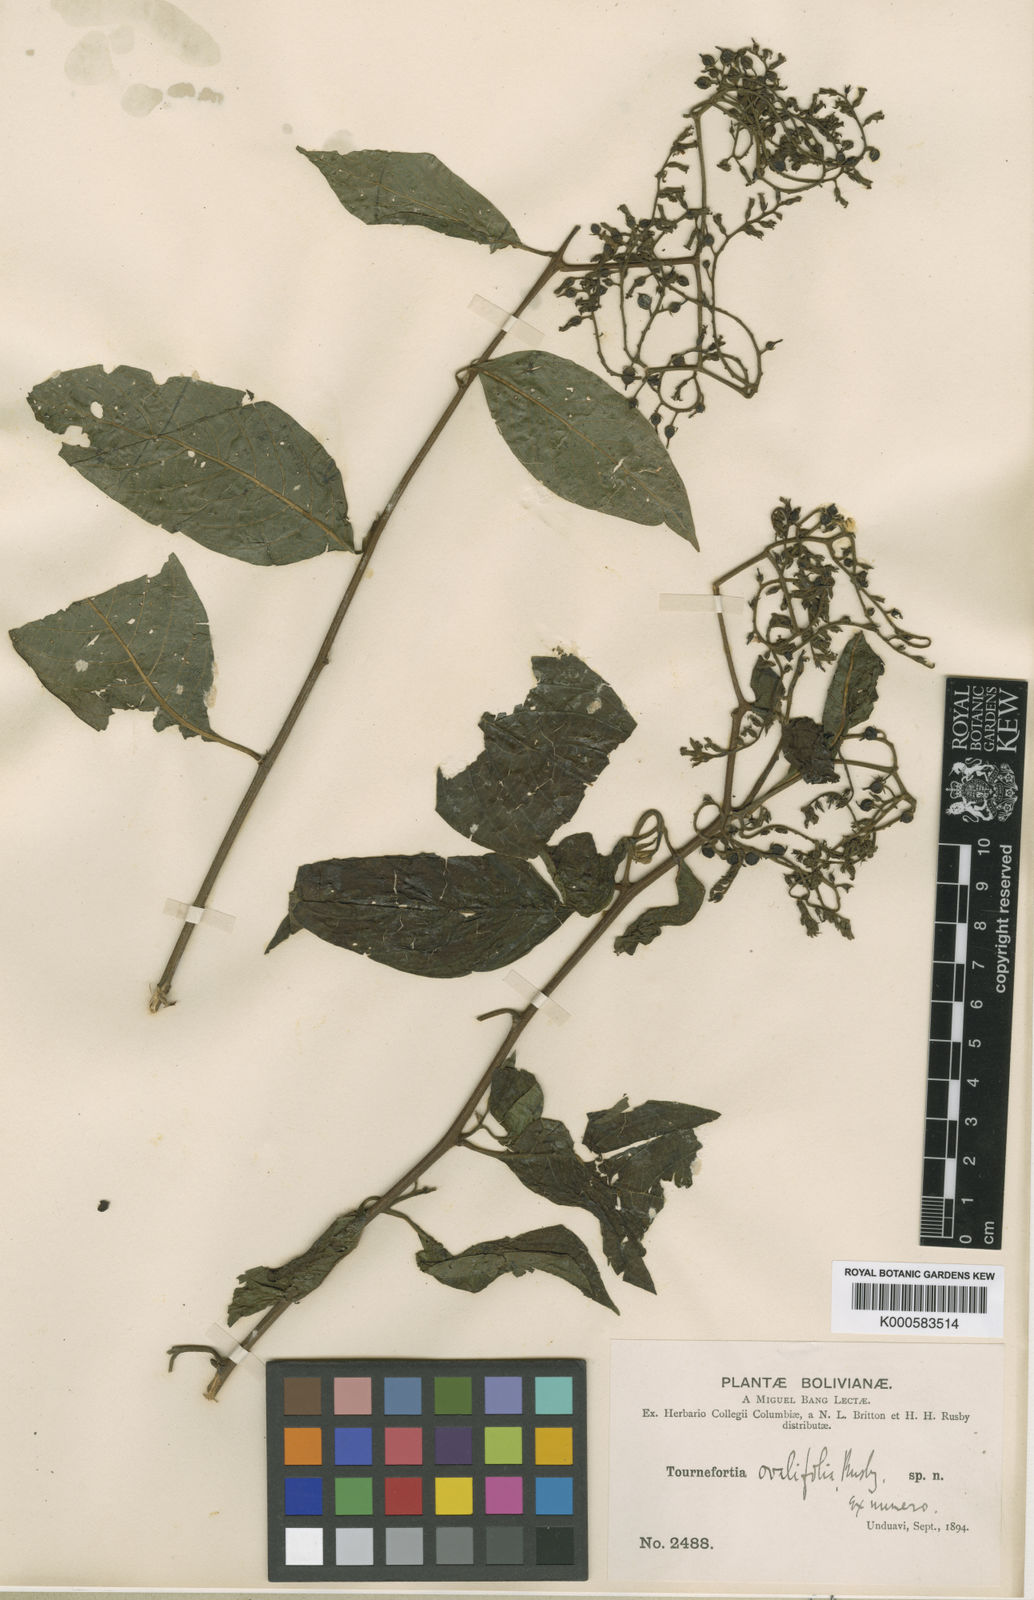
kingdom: Plantae
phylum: Tracheophyta
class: Magnoliopsida
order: Boraginales
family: Heliotropiaceae
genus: Tournefortia
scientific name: Tournefortia ovalifolia
